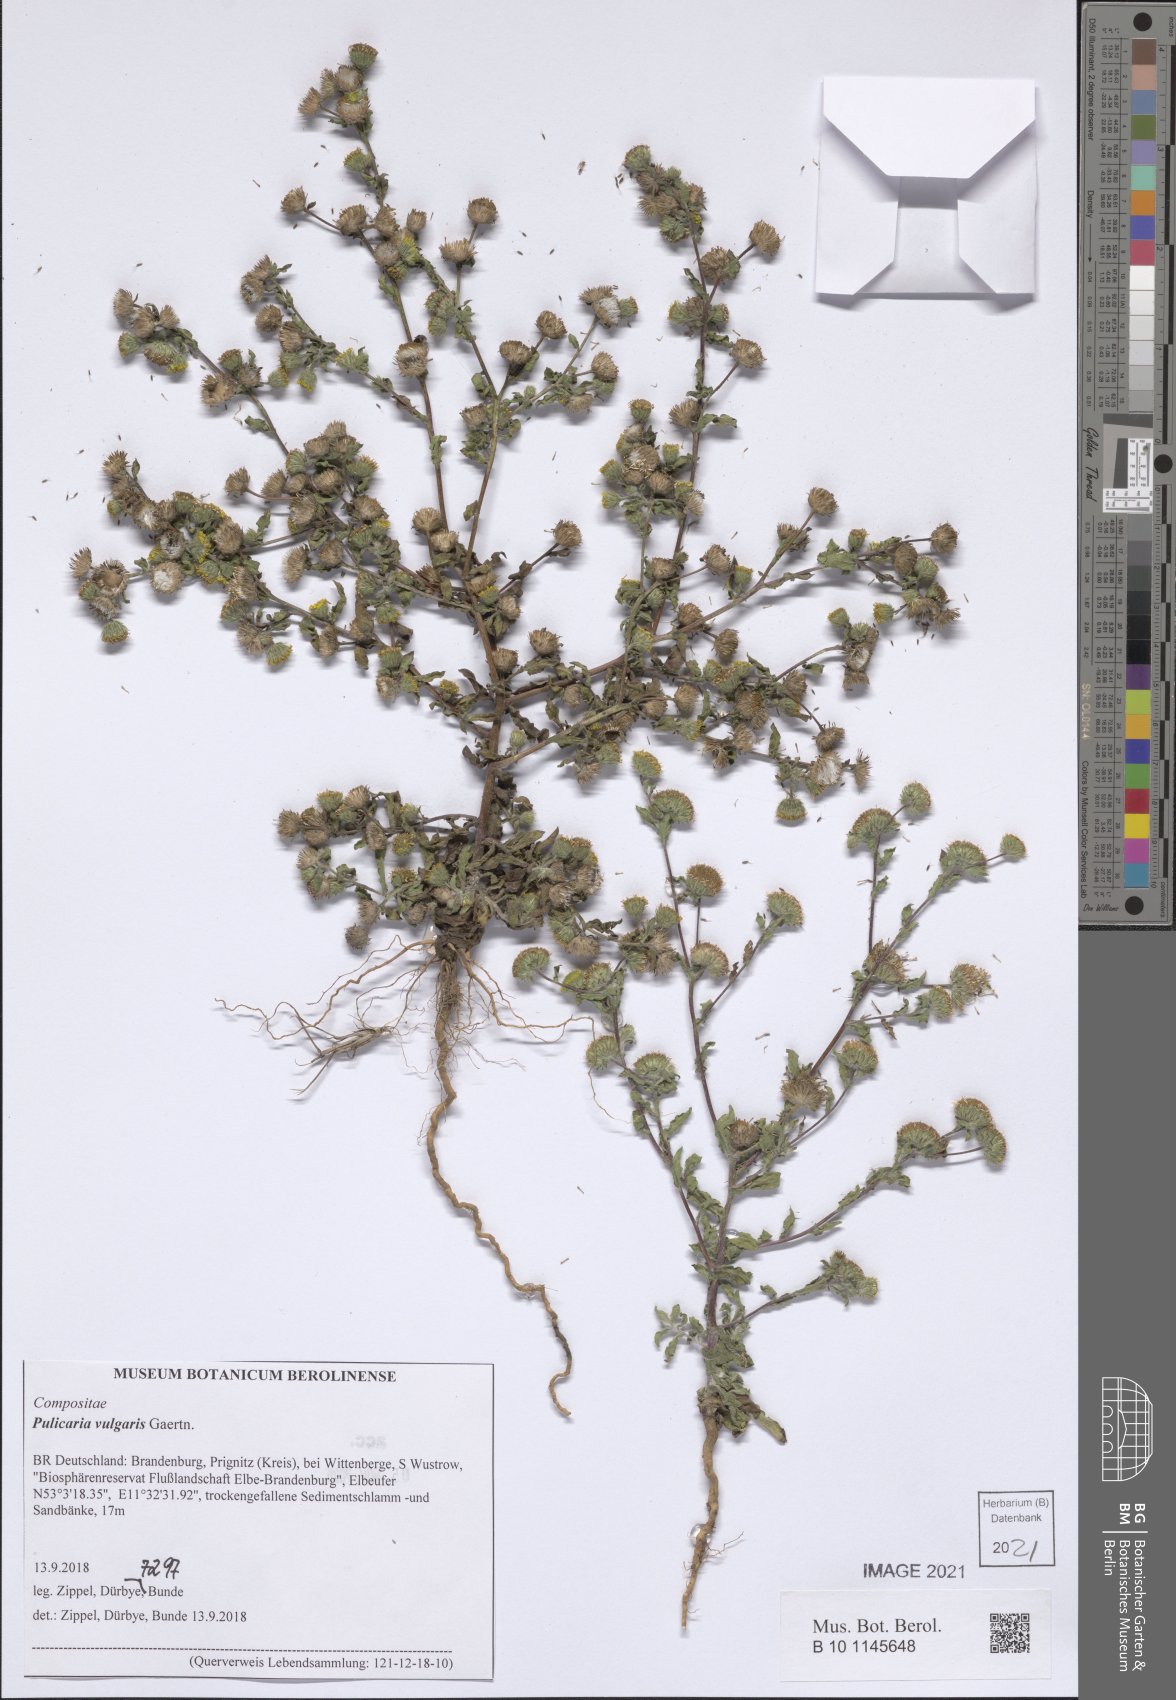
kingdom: Plantae
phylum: Tracheophyta
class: Magnoliopsida
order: Asterales
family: Asteraceae
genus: Pulicaria
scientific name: Pulicaria vulgaris
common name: Small fleabane
